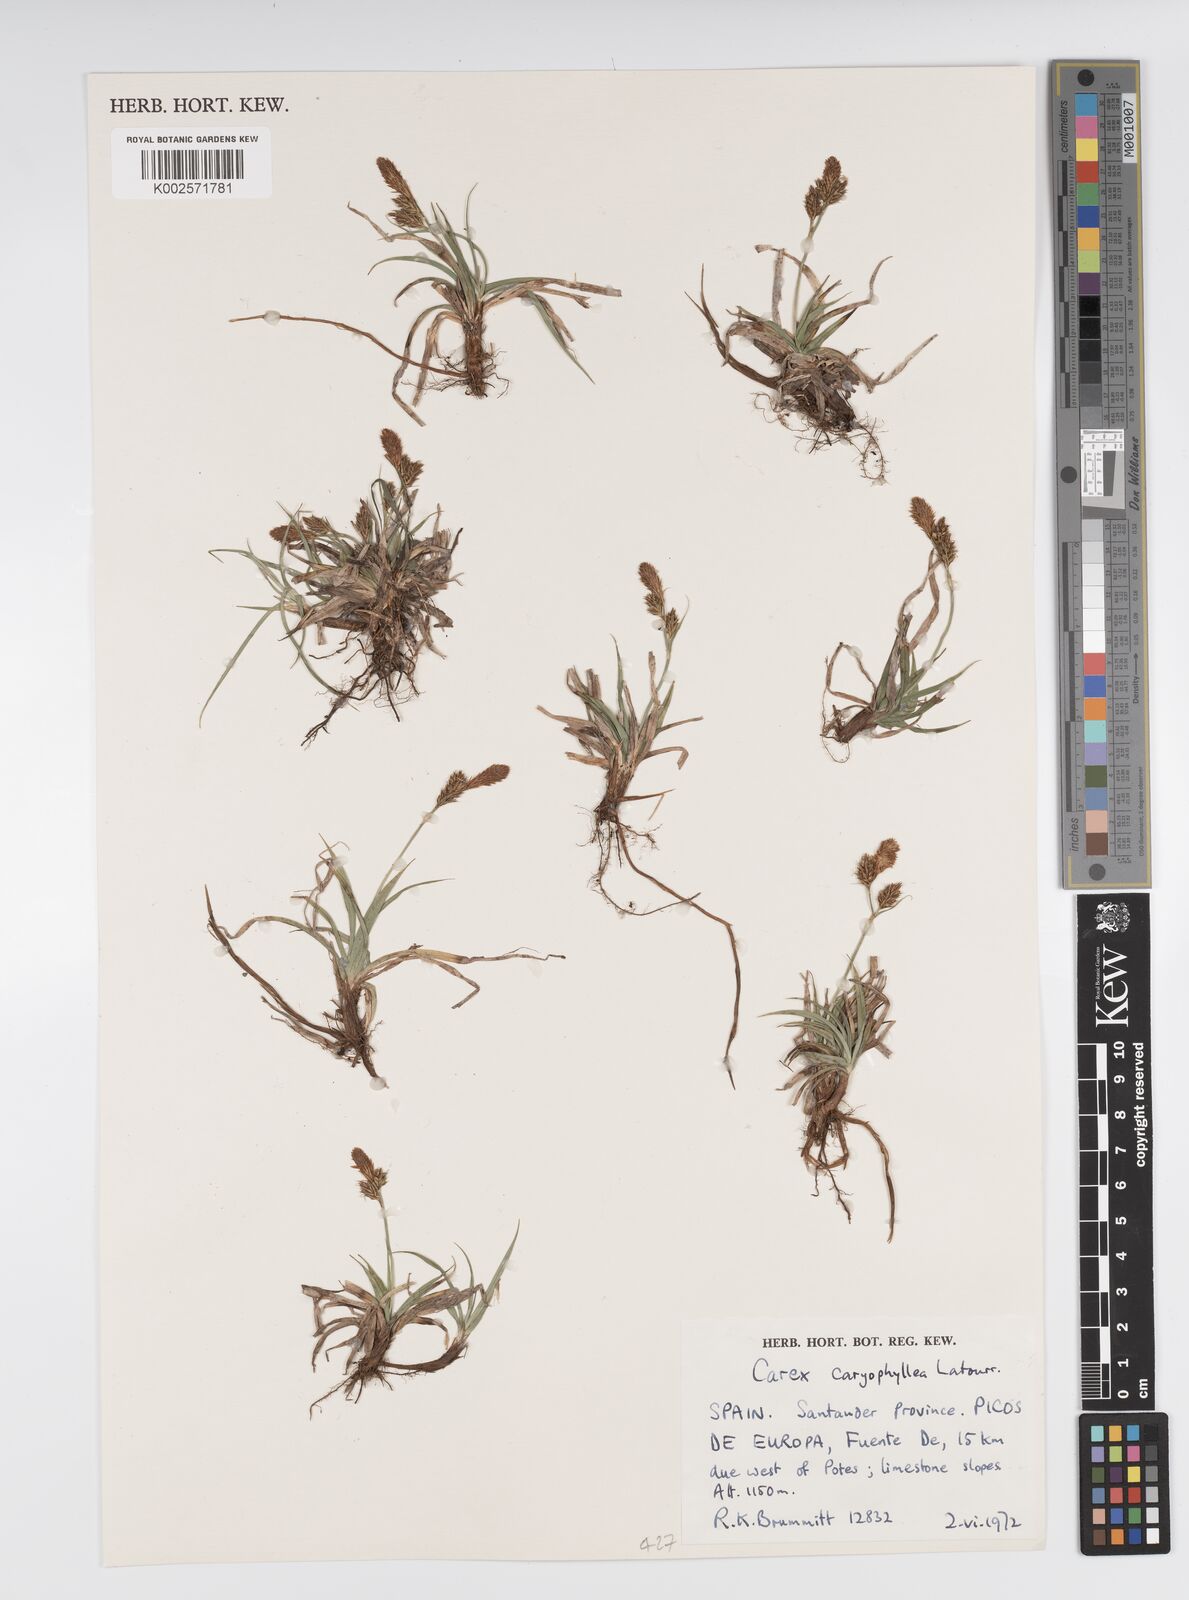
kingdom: Plantae
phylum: Tracheophyta
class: Liliopsida
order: Poales
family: Cyperaceae
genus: Carex
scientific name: Carex caryophyllea
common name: Spring sedge
